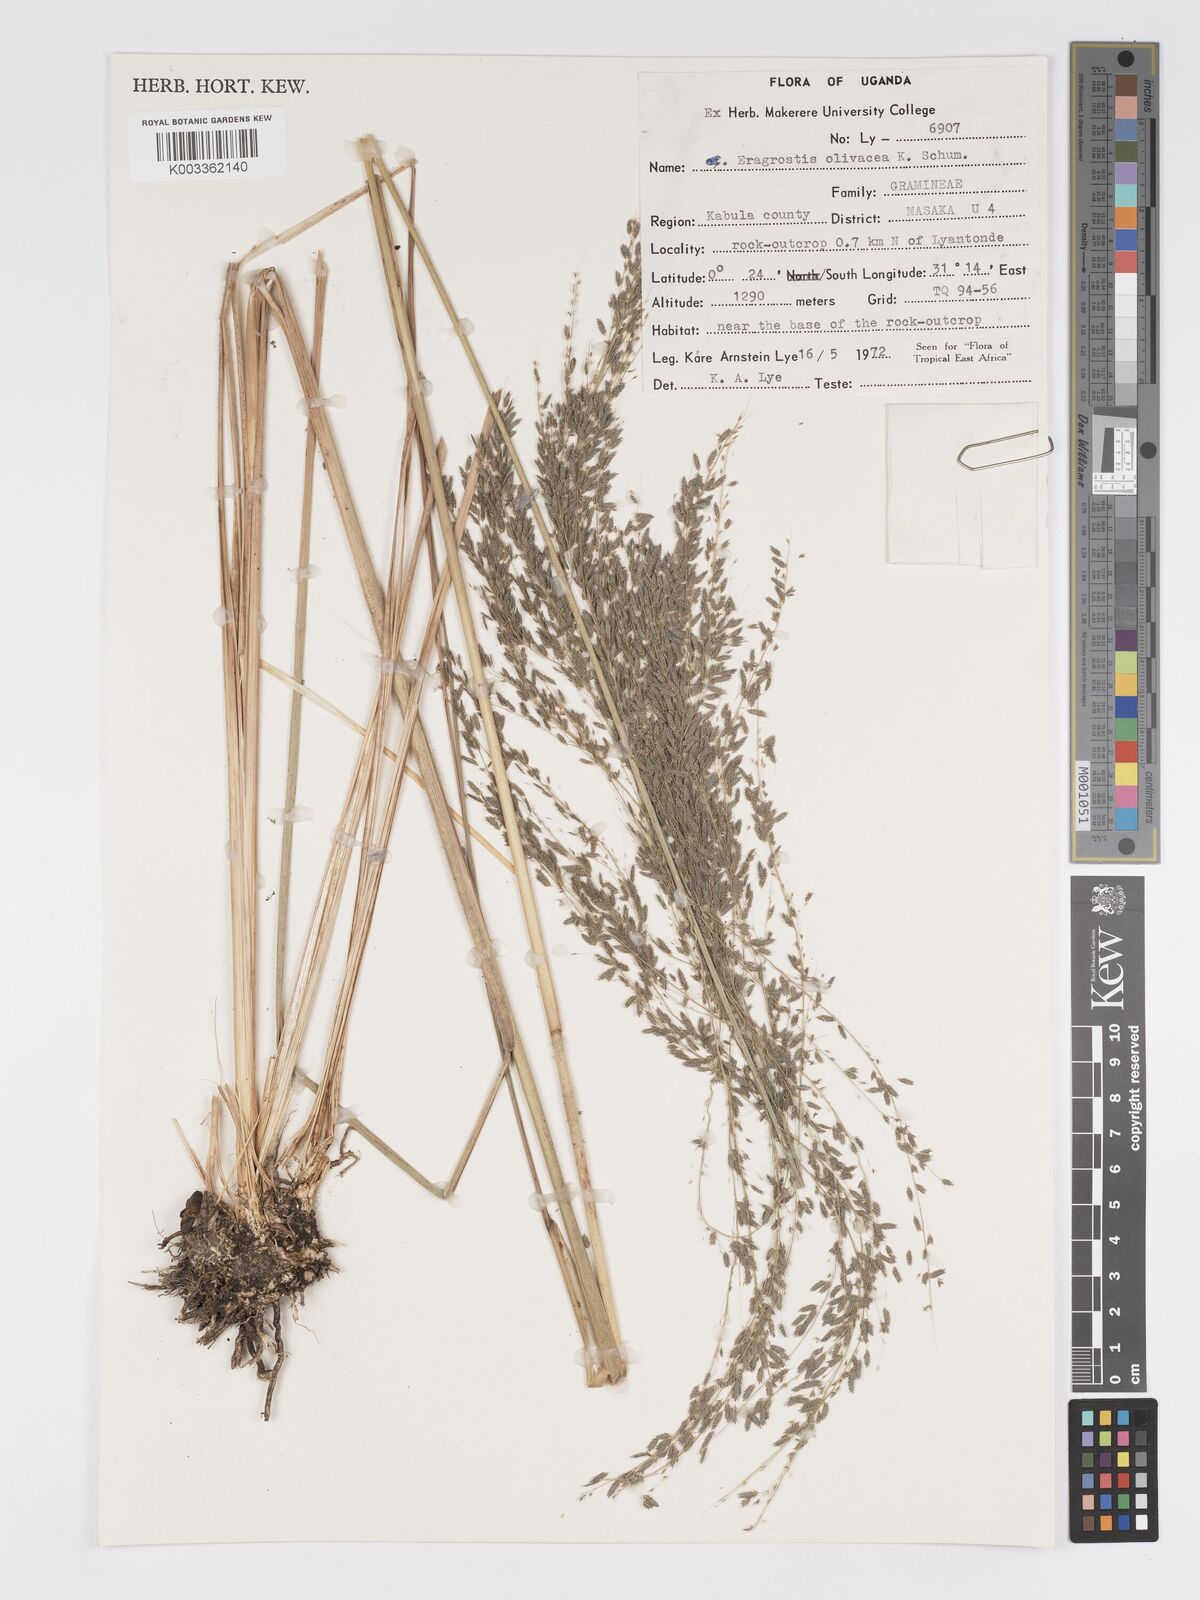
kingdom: Plantae
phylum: Tracheophyta
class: Liliopsida
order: Poales
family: Poaceae
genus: Eragrostis
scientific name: Eragrostis olivacea
